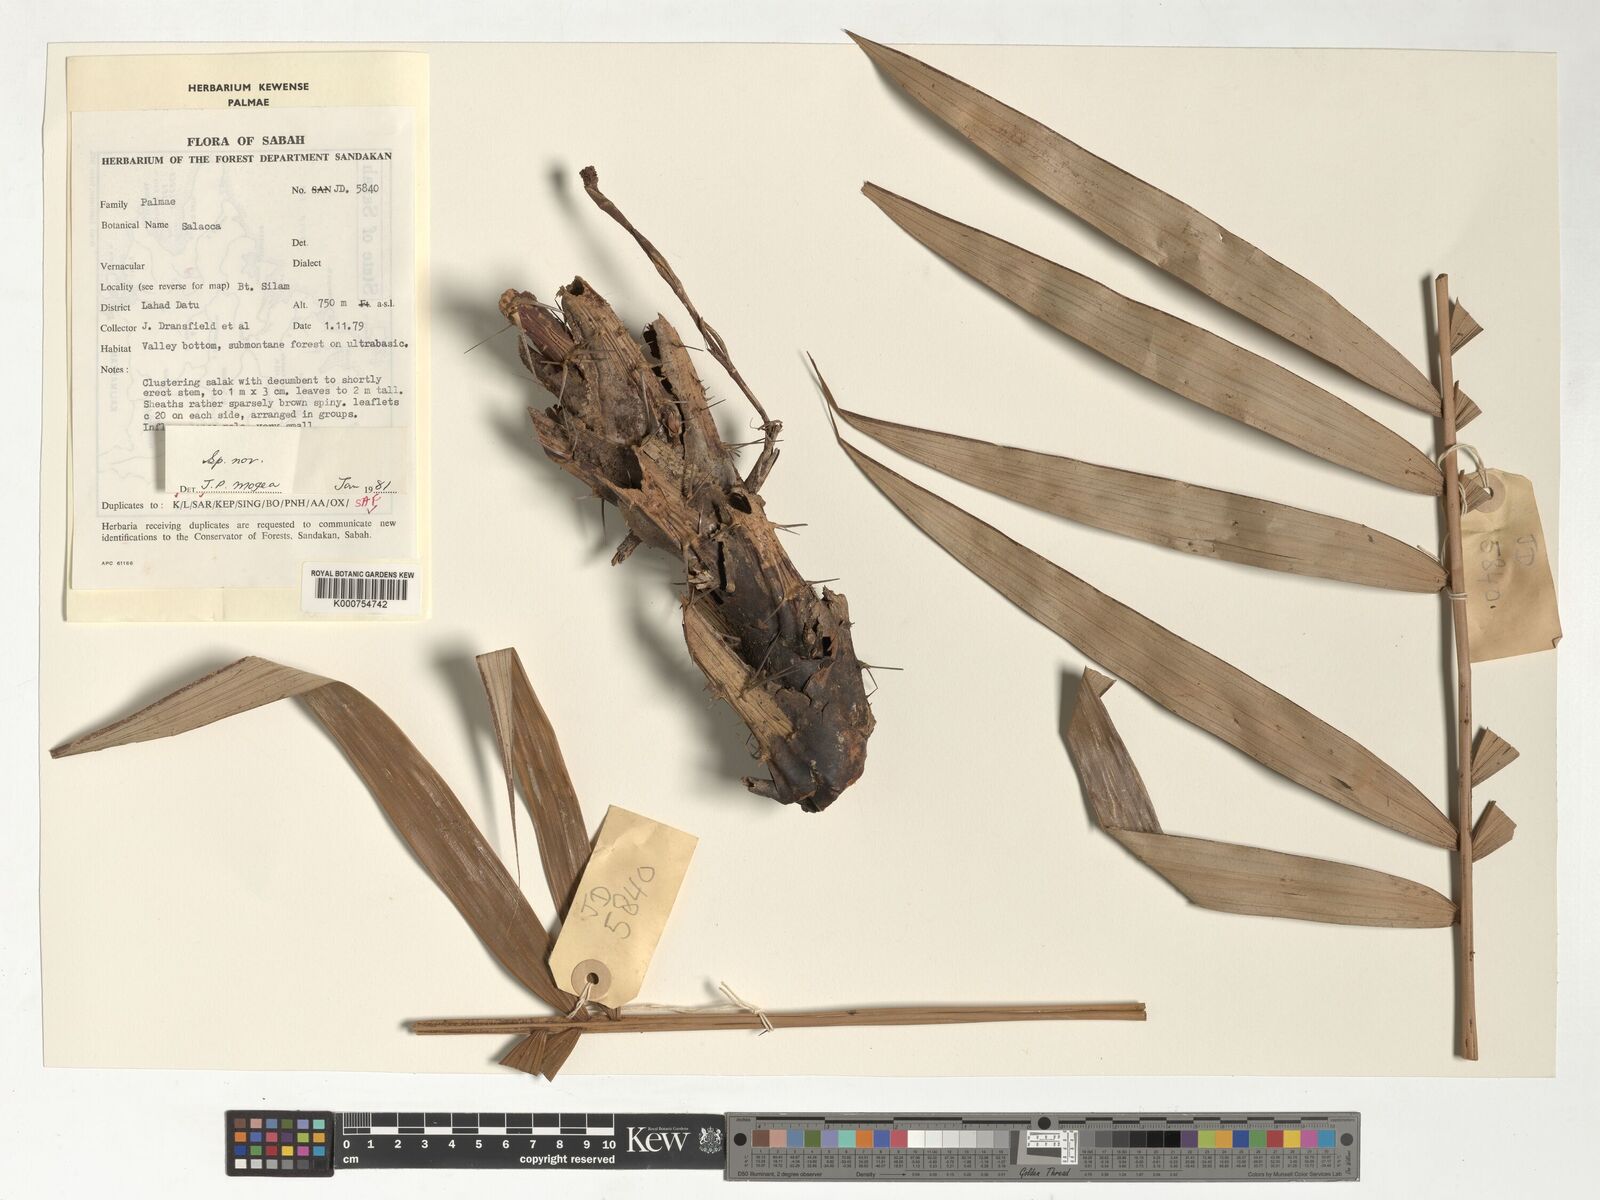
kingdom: Plantae
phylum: Tracheophyta
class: Liliopsida
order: Arecales
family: Arecaceae
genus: Salacca
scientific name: Salacca
